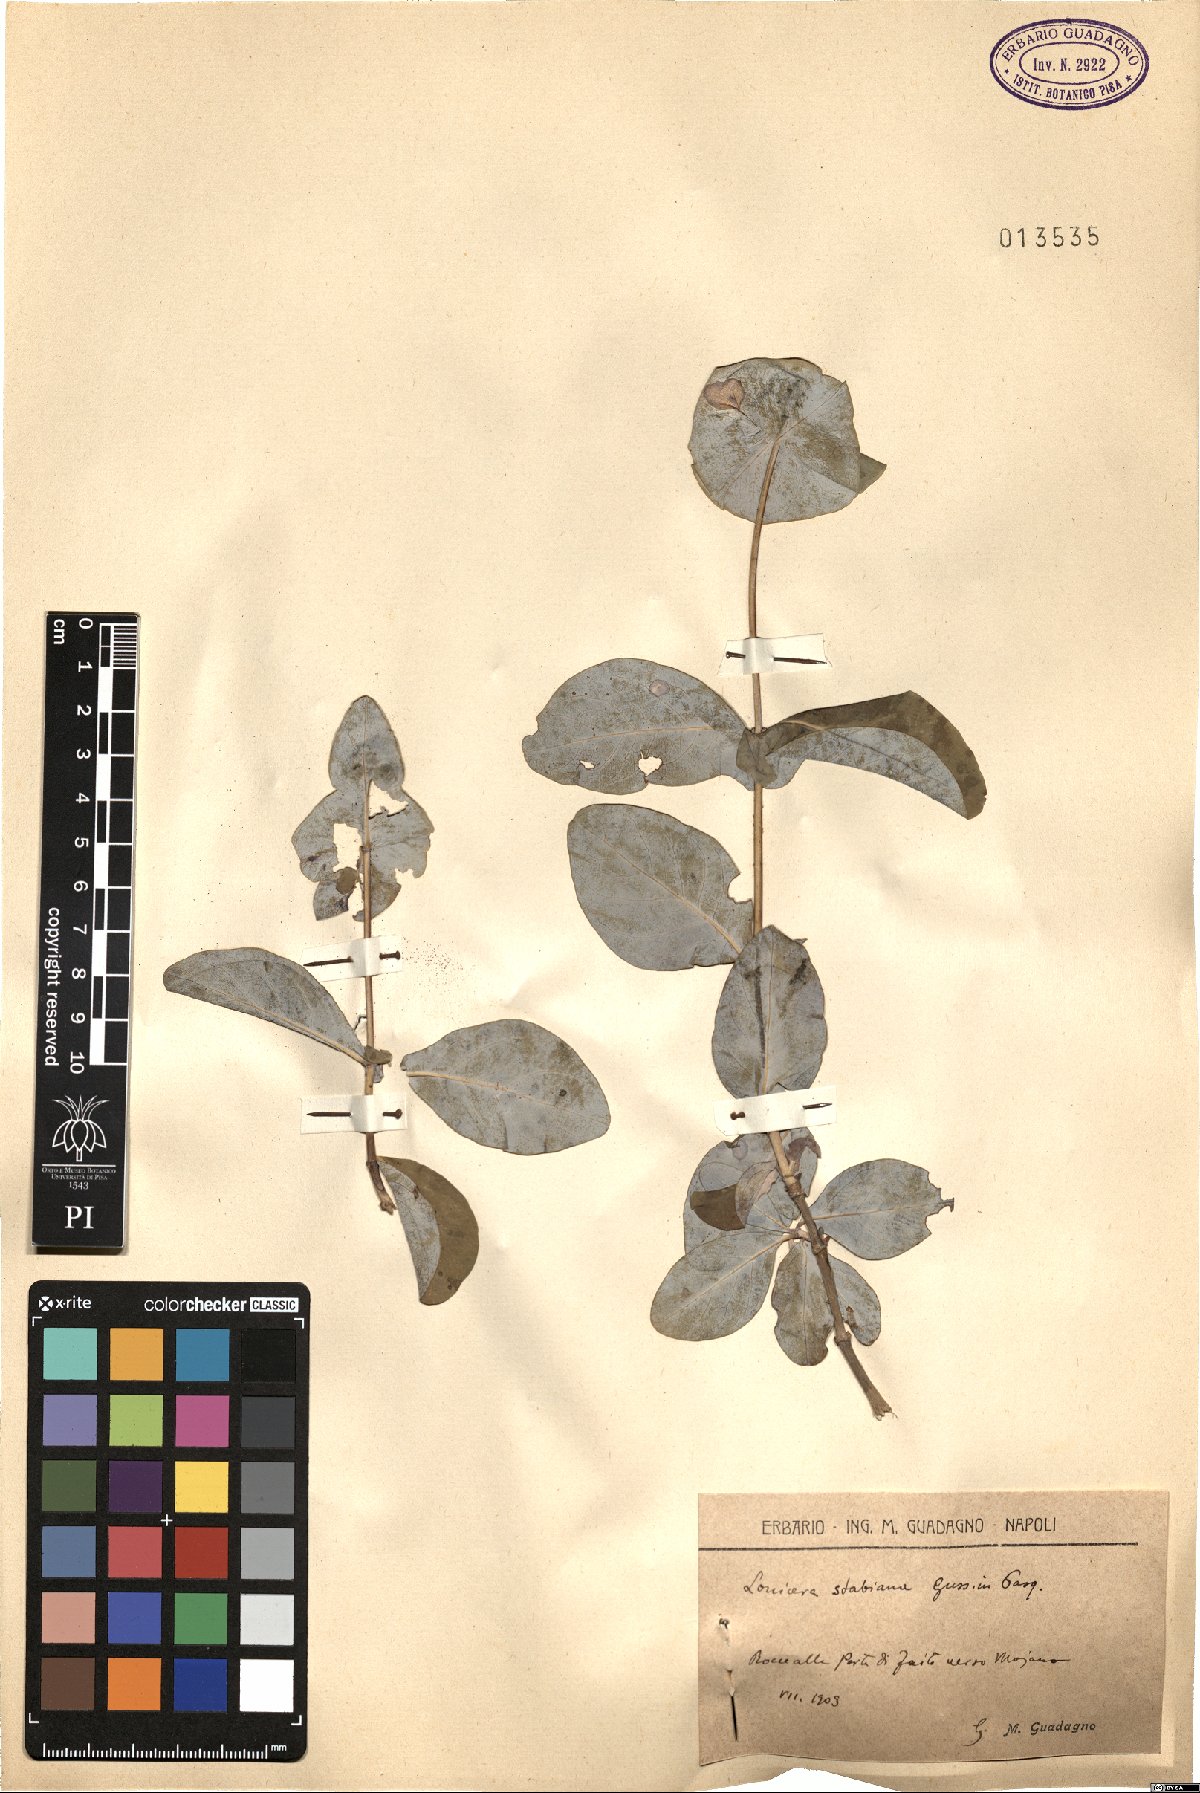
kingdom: Plantae
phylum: Tracheophyta
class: Magnoliopsida
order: Dipsacales
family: Caprifoliaceae
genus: Lonicera
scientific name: Lonicera stabiana
